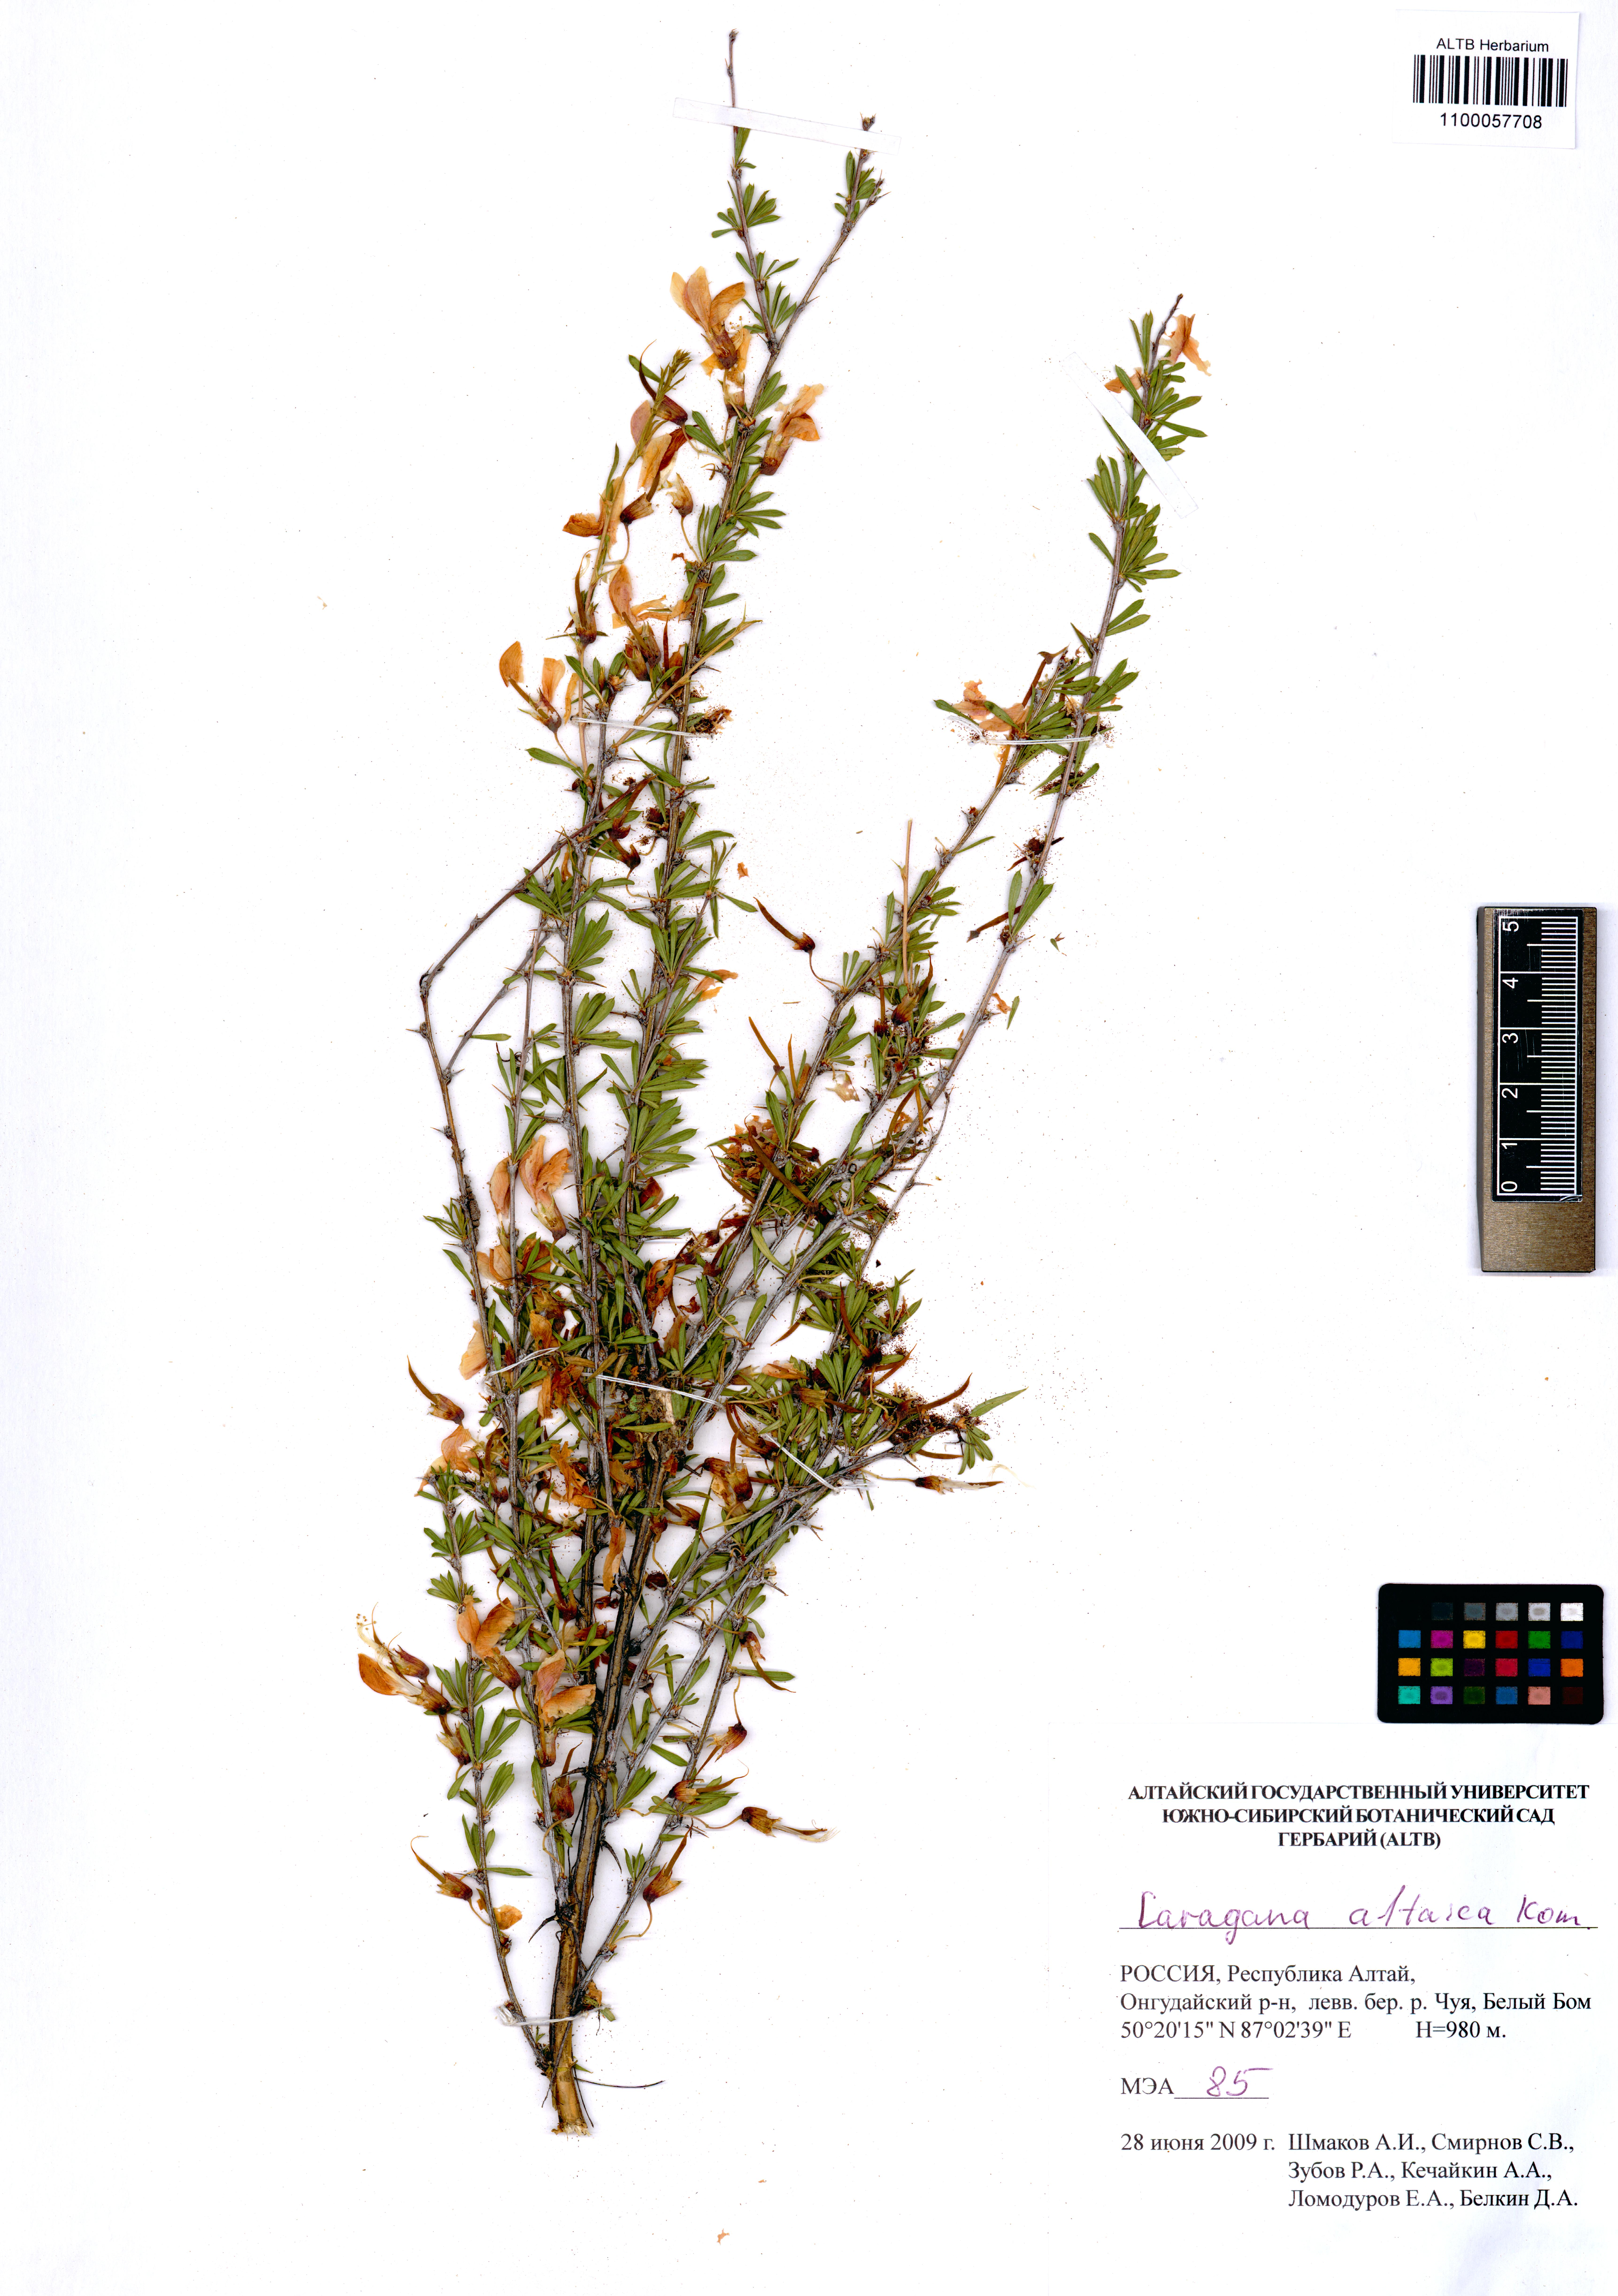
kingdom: Plantae
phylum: Tracheophyta
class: Magnoliopsida
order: Fabales
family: Fabaceae
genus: Caragana
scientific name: Caragana pygmaea
